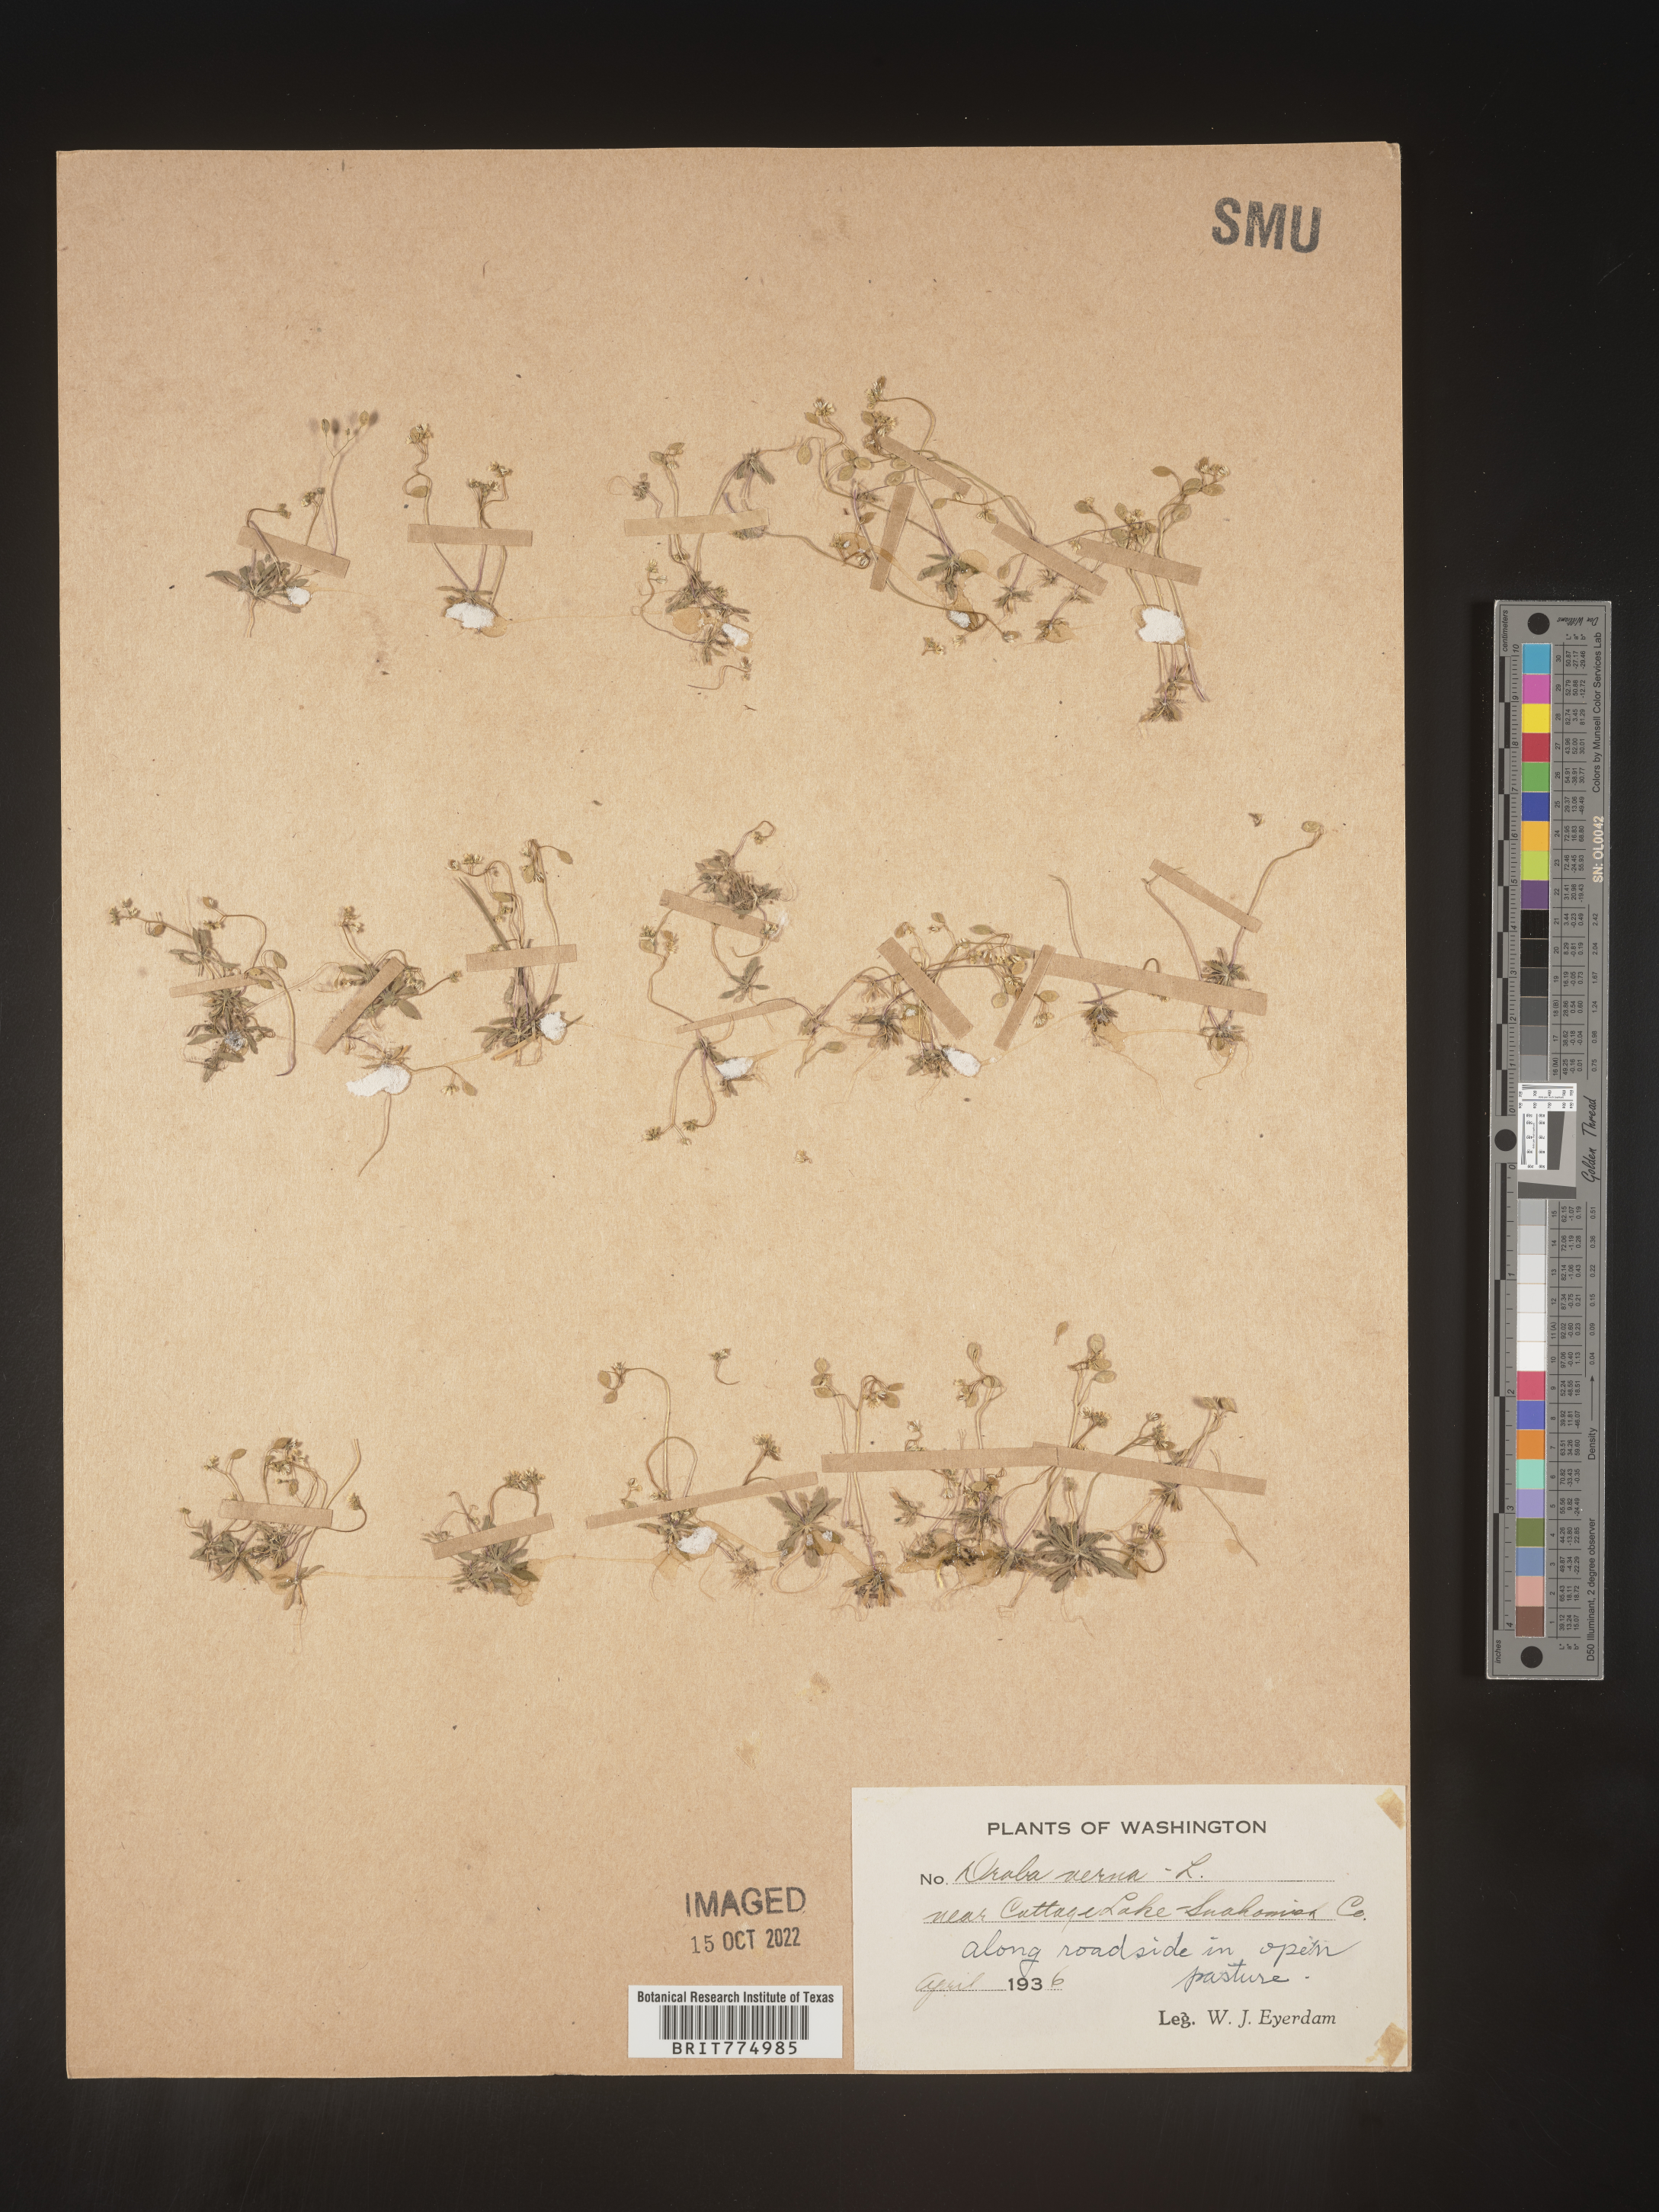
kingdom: Plantae
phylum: Tracheophyta
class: Magnoliopsida
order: Brassicales
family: Brassicaceae
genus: Draba
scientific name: Draba verna
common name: Spring draba
